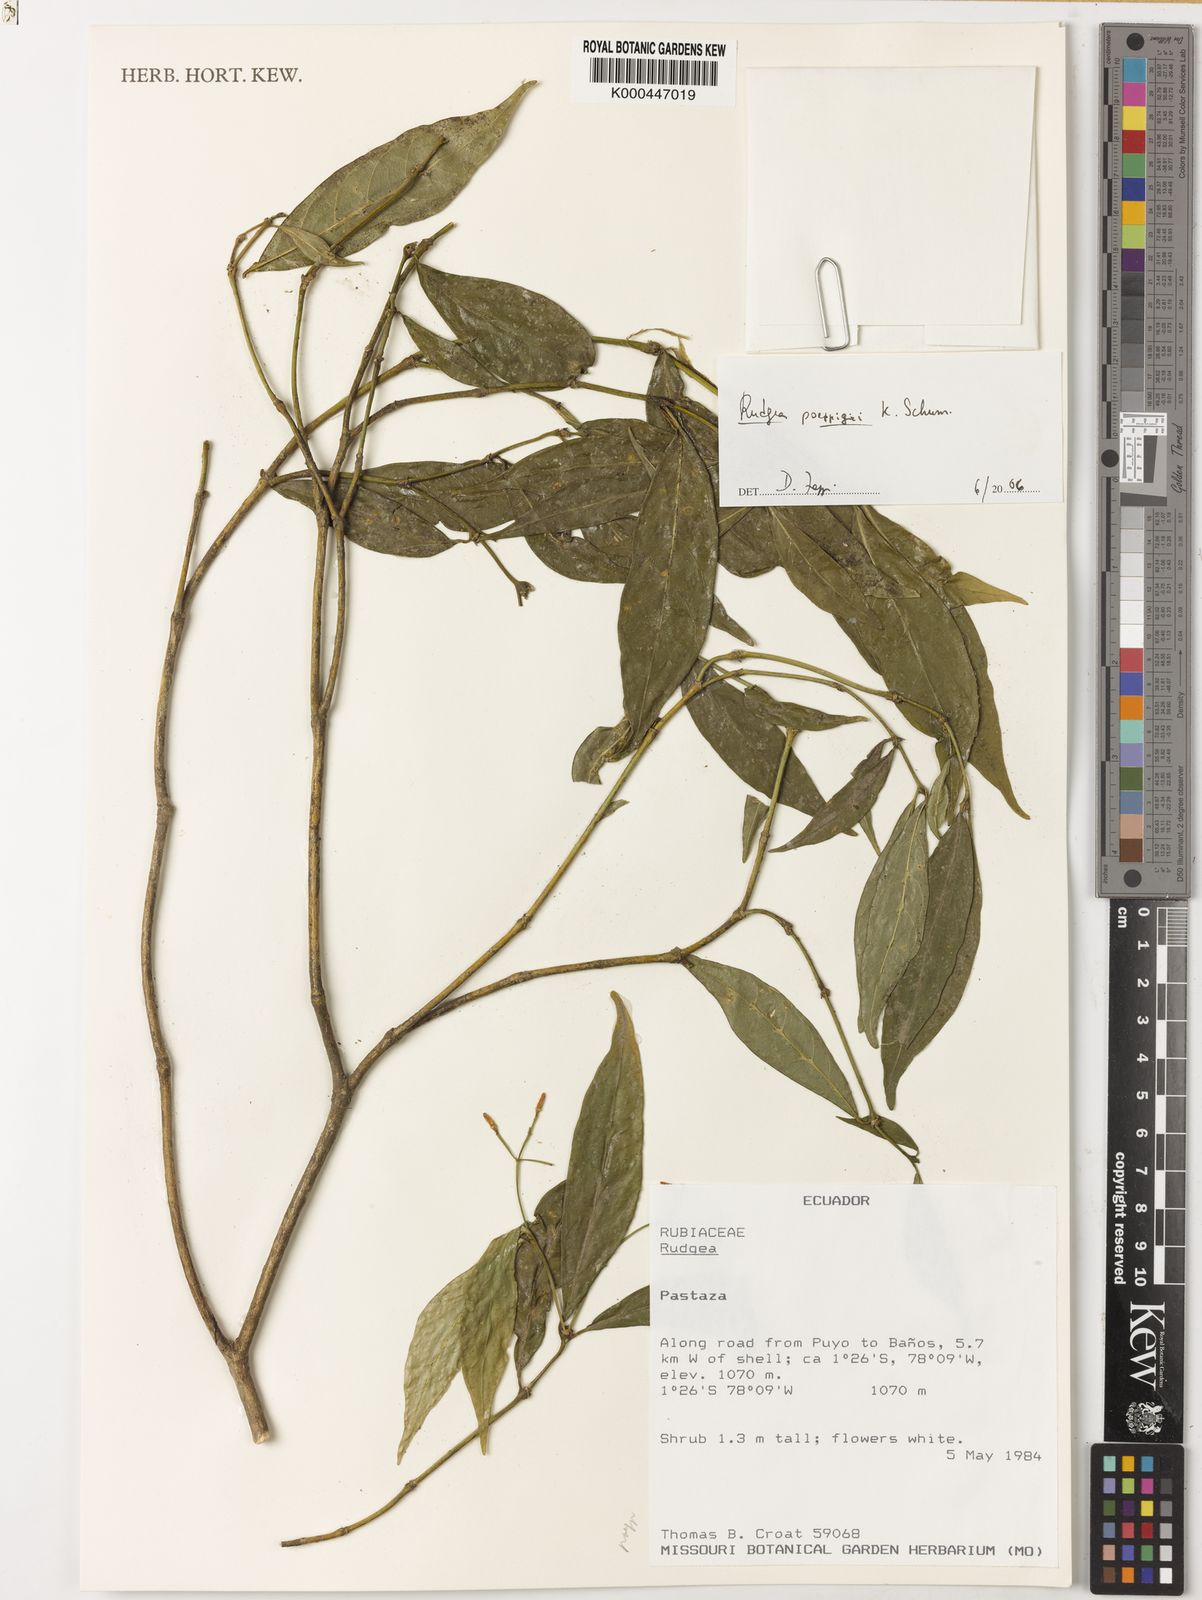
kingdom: Plantae
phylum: Tracheophyta
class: Magnoliopsida
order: Gentianales
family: Rubiaceae
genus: Rudgea
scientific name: Rudgea poeppigii
